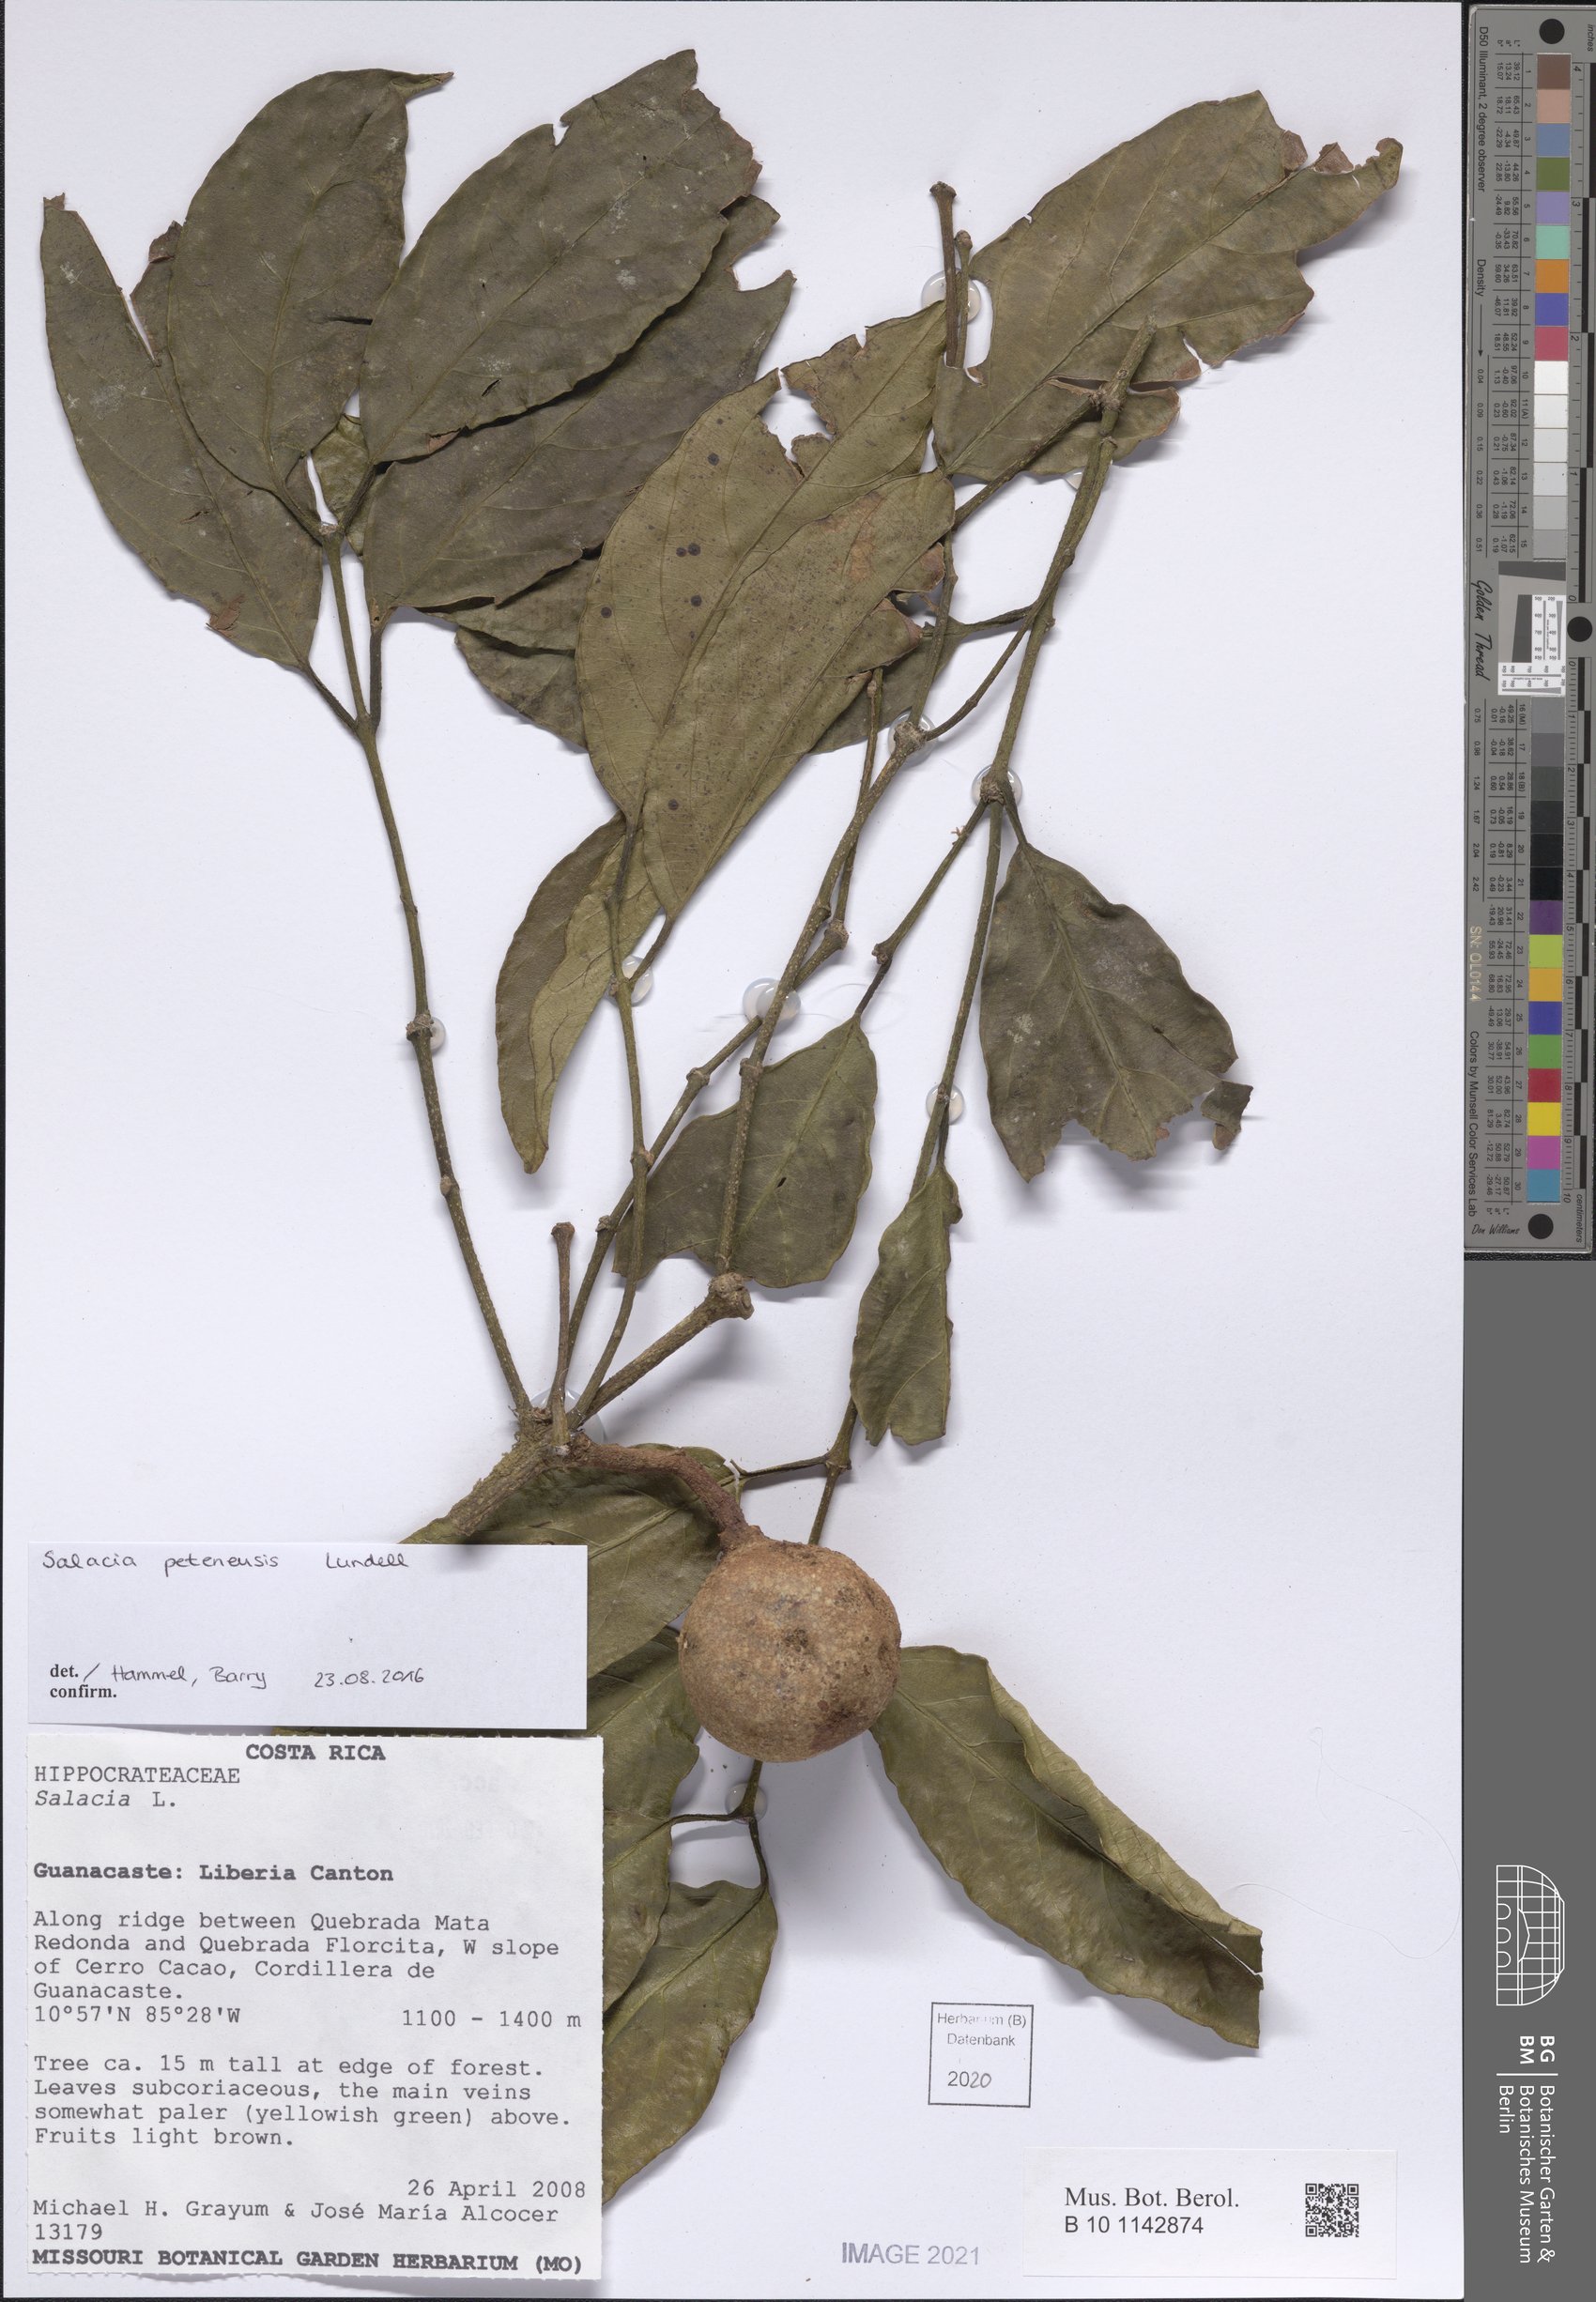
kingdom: Plantae
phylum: Tracheophyta
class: Magnoliopsida
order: Celastrales
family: Celastraceae
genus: Salacia
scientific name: Salacia cordata
